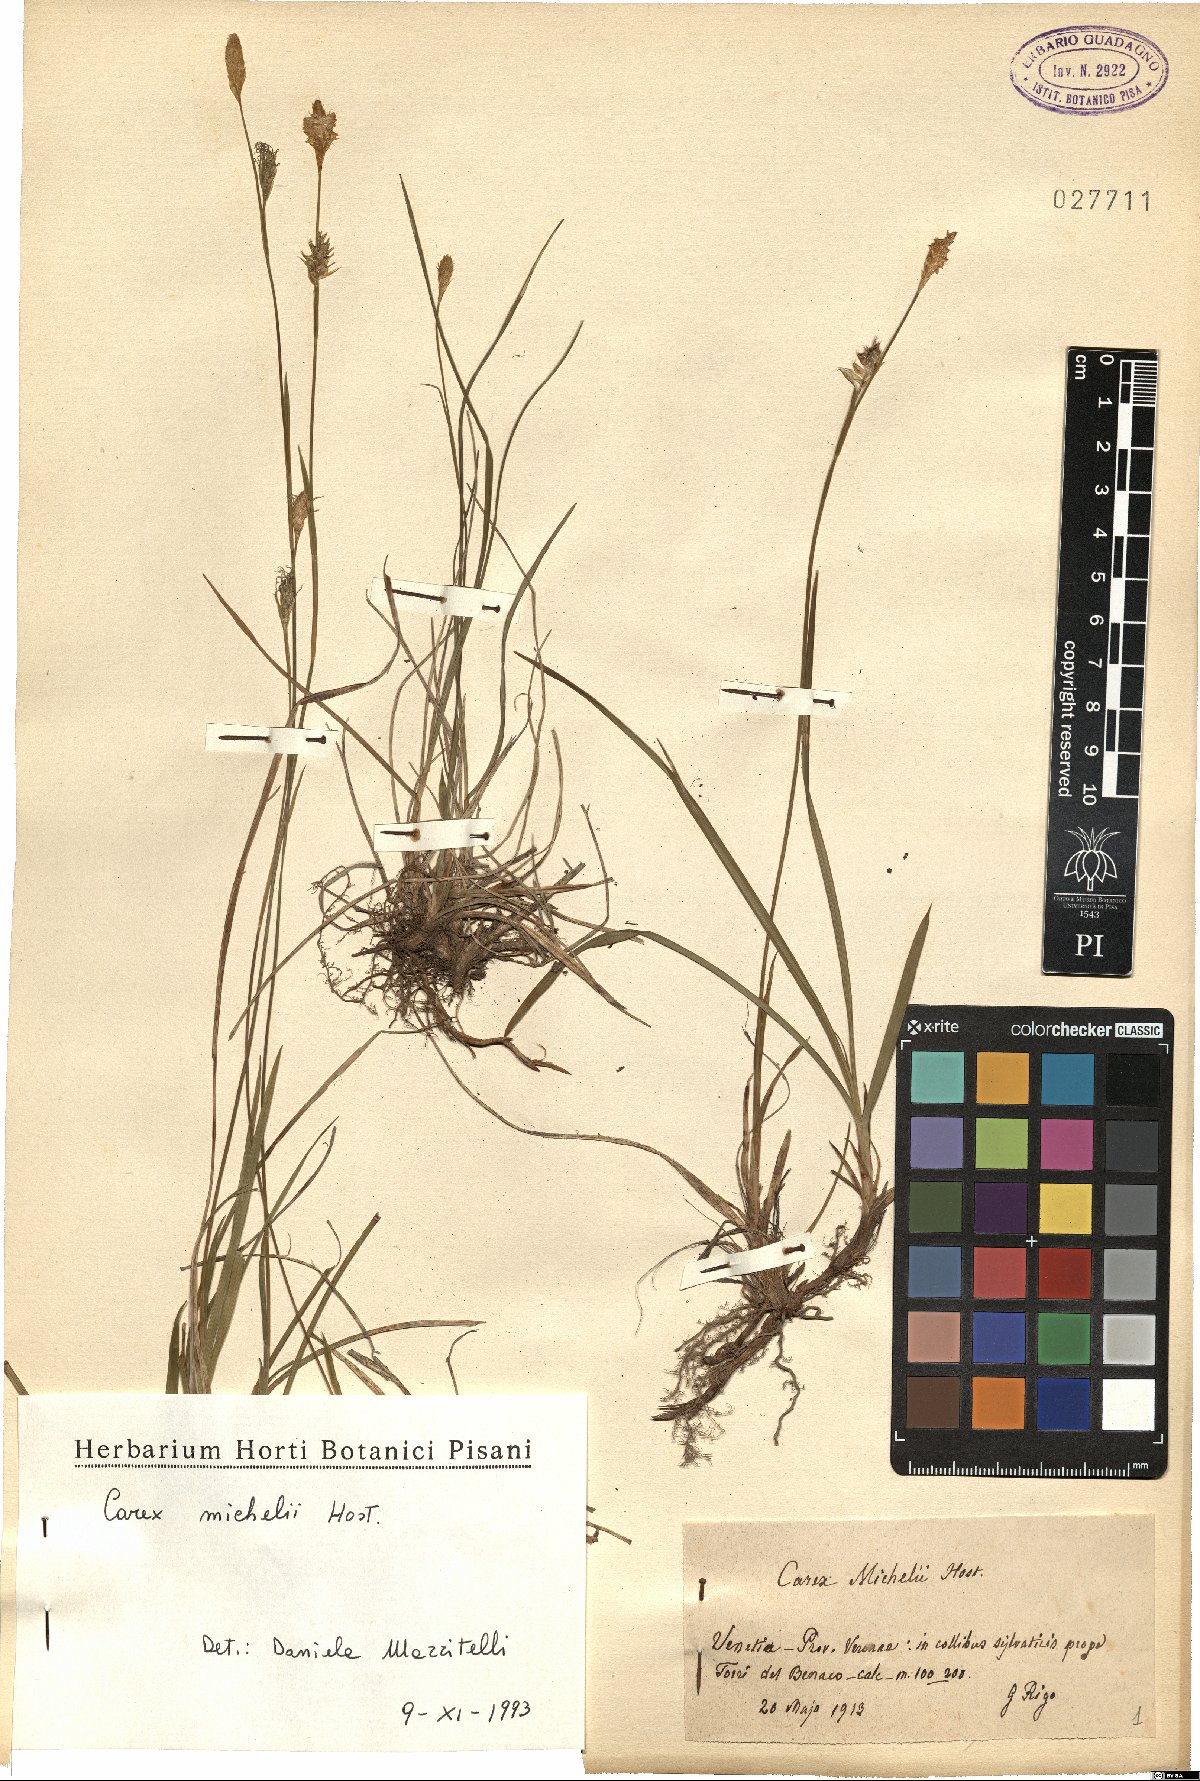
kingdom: Plantae
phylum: Tracheophyta
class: Liliopsida
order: Poales
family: Cyperaceae
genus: Carex
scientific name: Carex michelii
